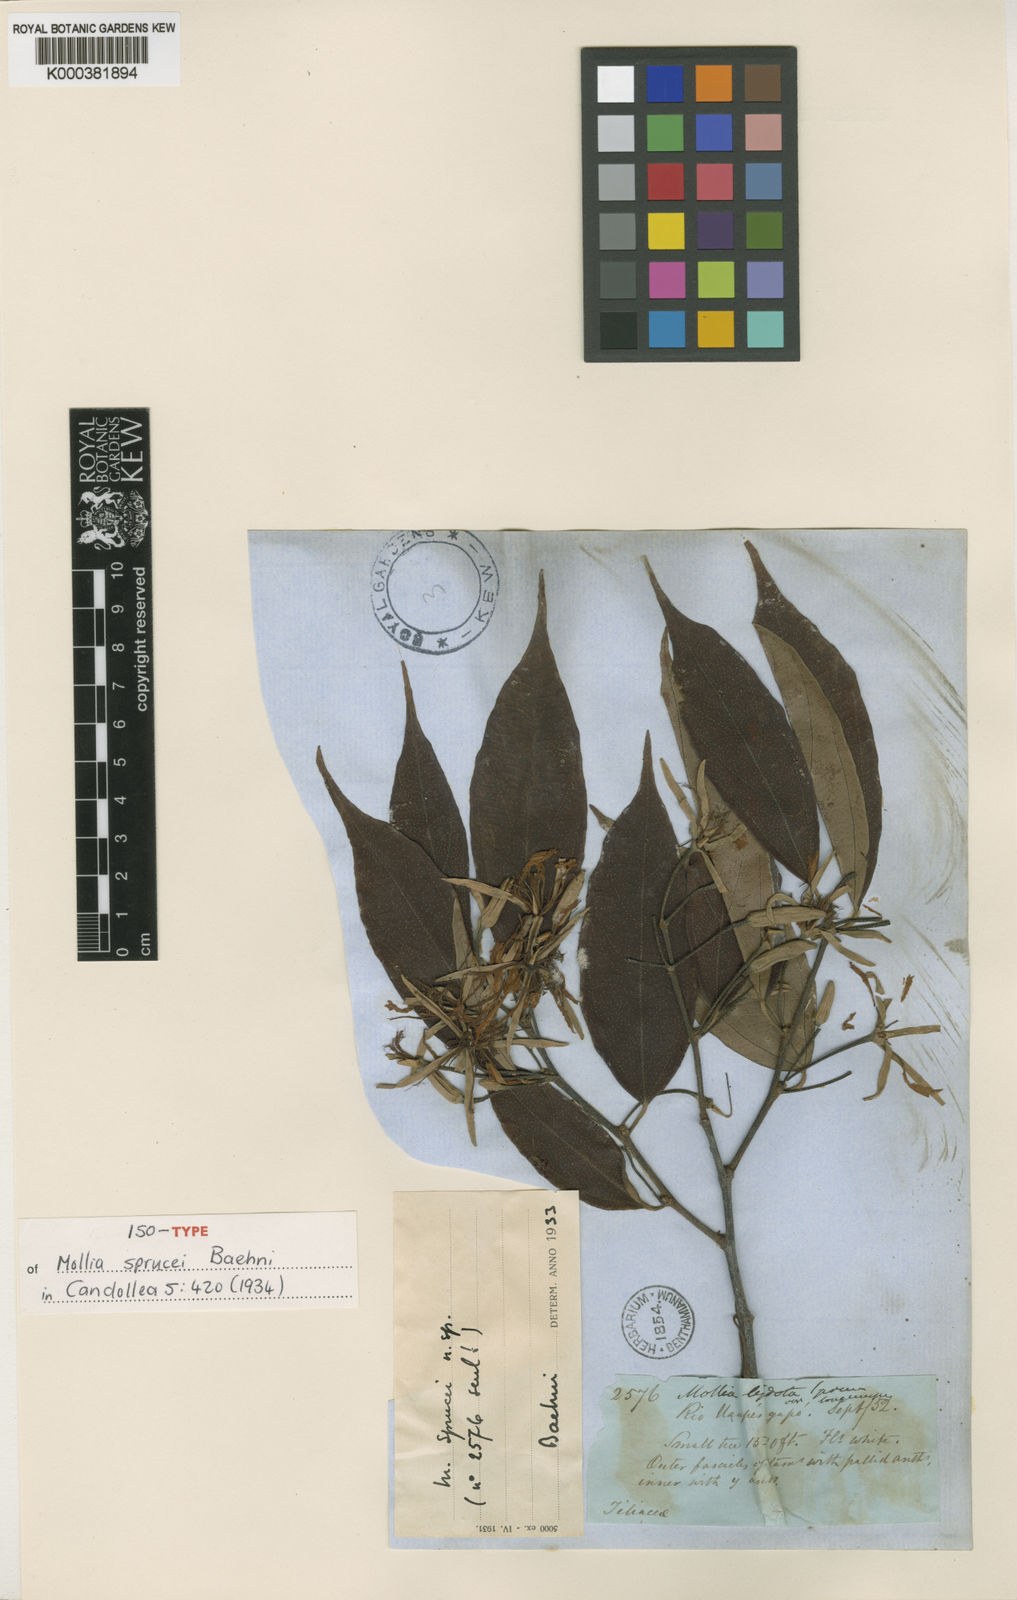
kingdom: Plantae
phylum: Tracheophyta
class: Magnoliopsida
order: Malvales
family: Malvaceae
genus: Mollia
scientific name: Mollia lepidota
